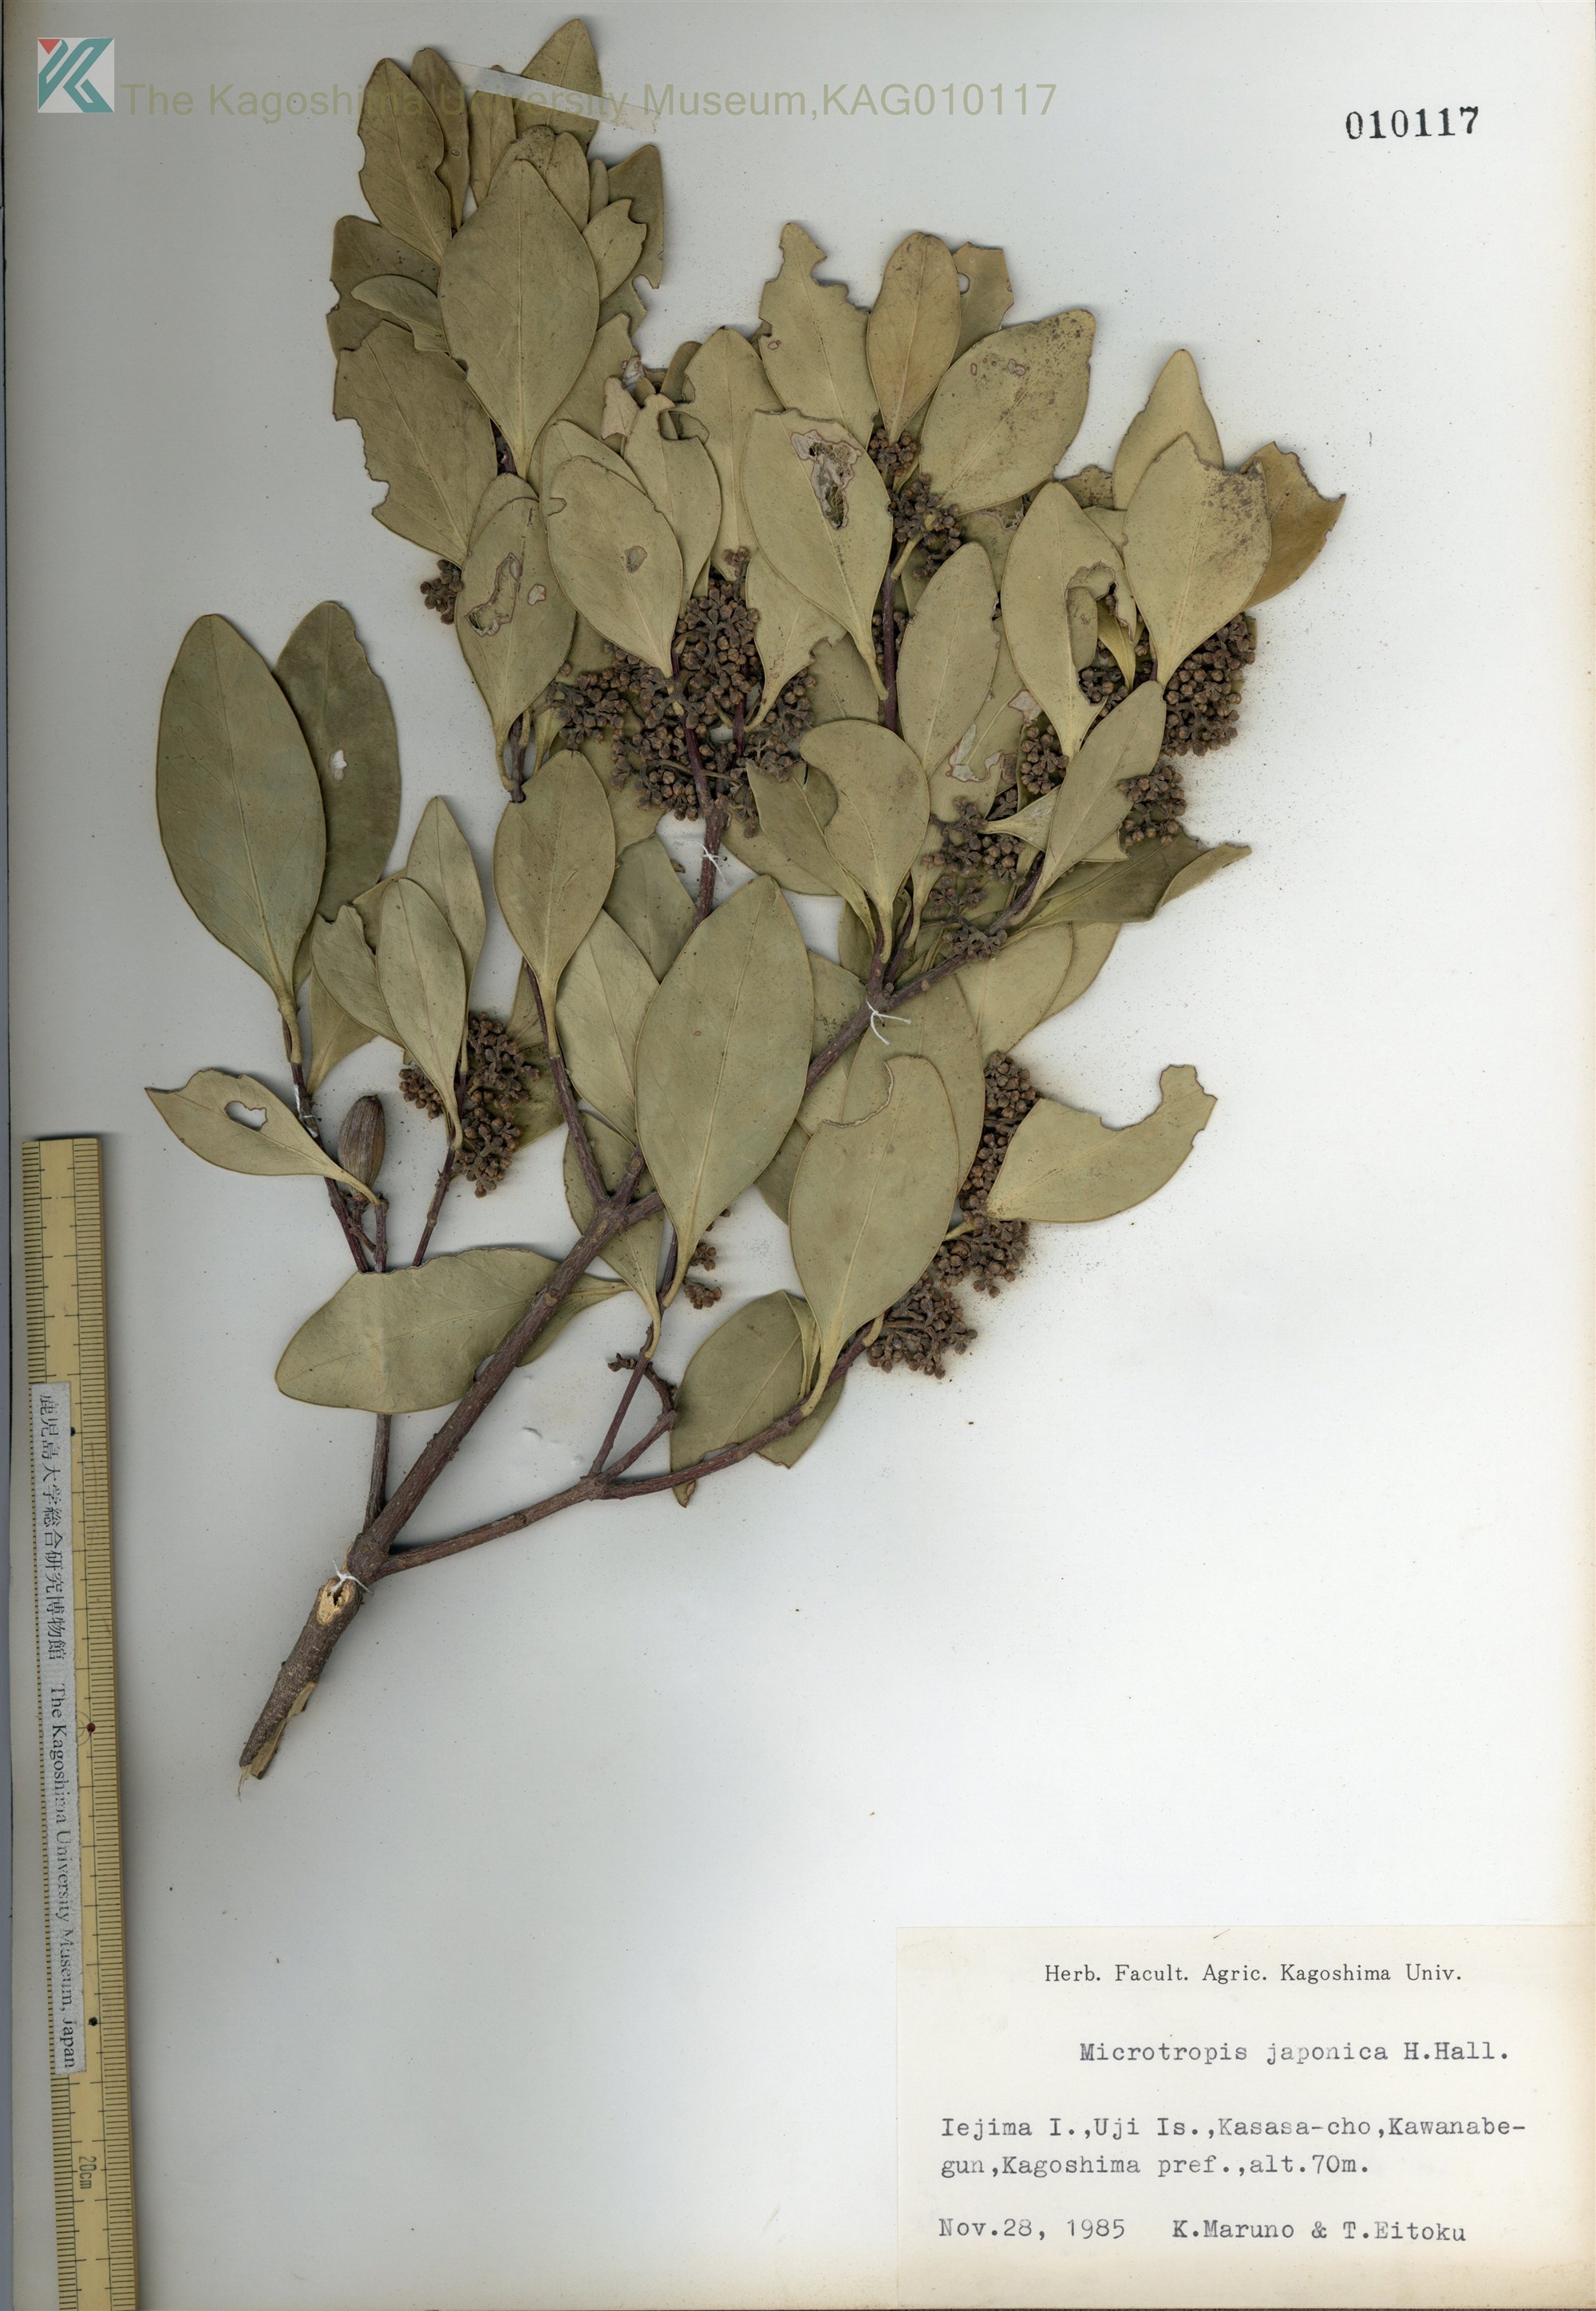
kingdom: Plantae
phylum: Tracheophyta
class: Magnoliopsida
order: Celastrales
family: Celastraceae
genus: Microtropis
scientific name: Microtropis japonica
